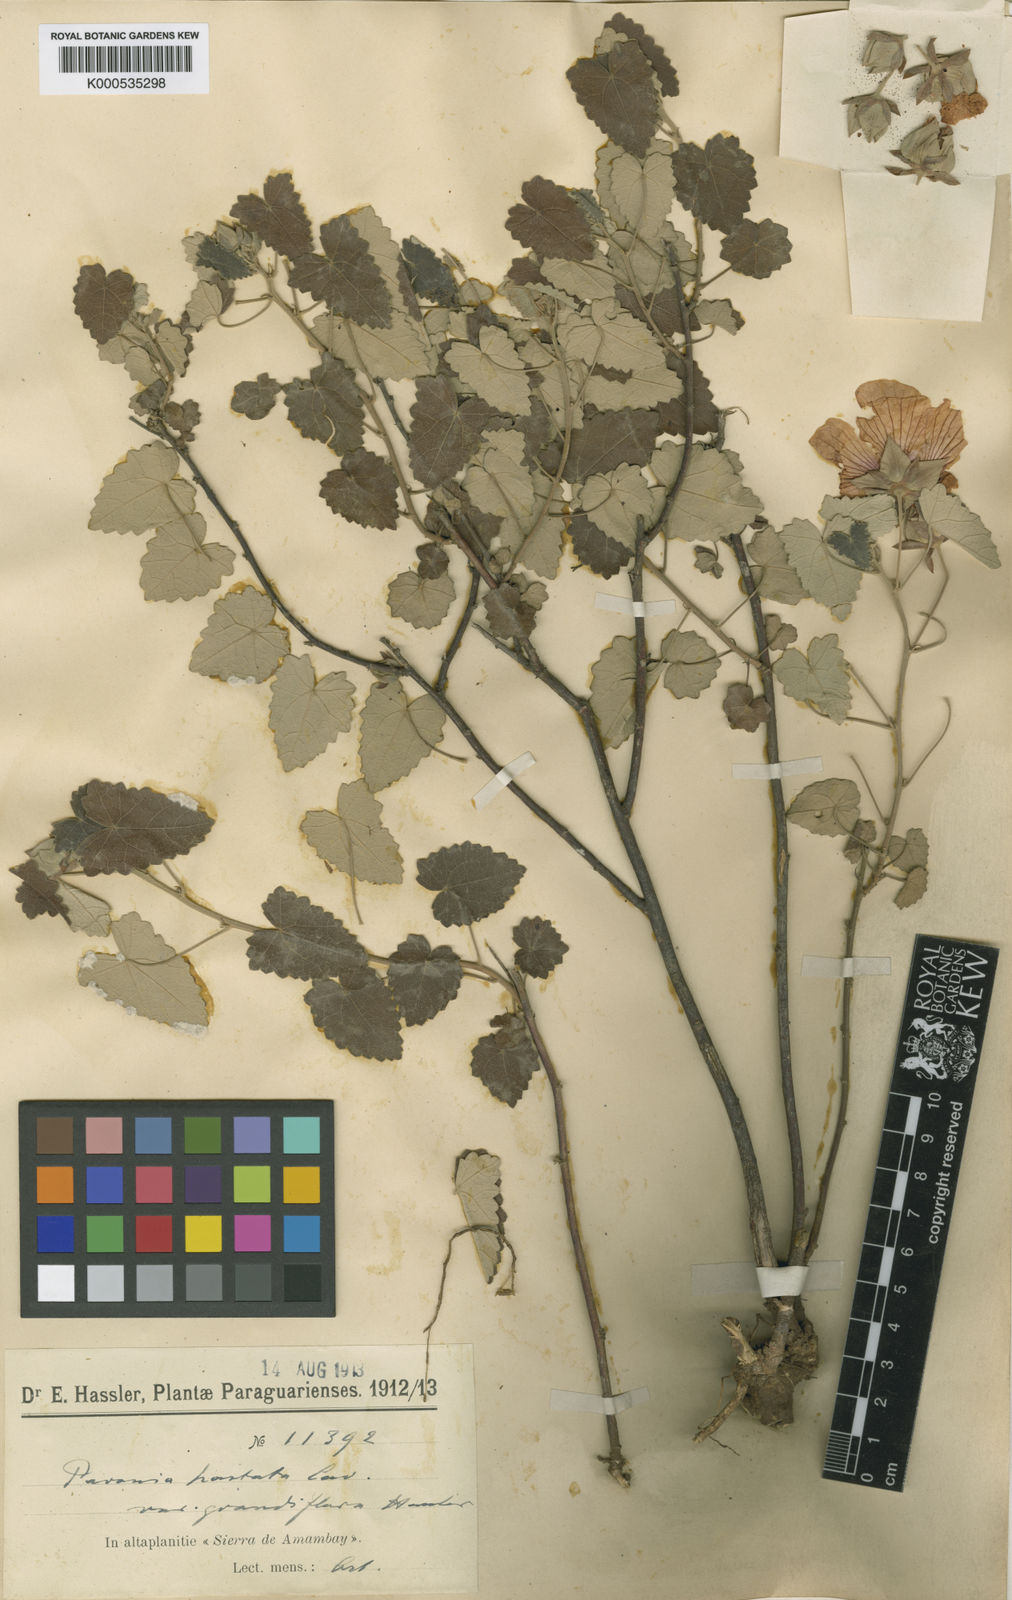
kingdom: Plantae
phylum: Tracheophyta
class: Magnoliopsida
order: Malvales
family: Malvaceae
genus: Pavonia
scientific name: Pavonia hastata
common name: Spearleaf swampmallow
